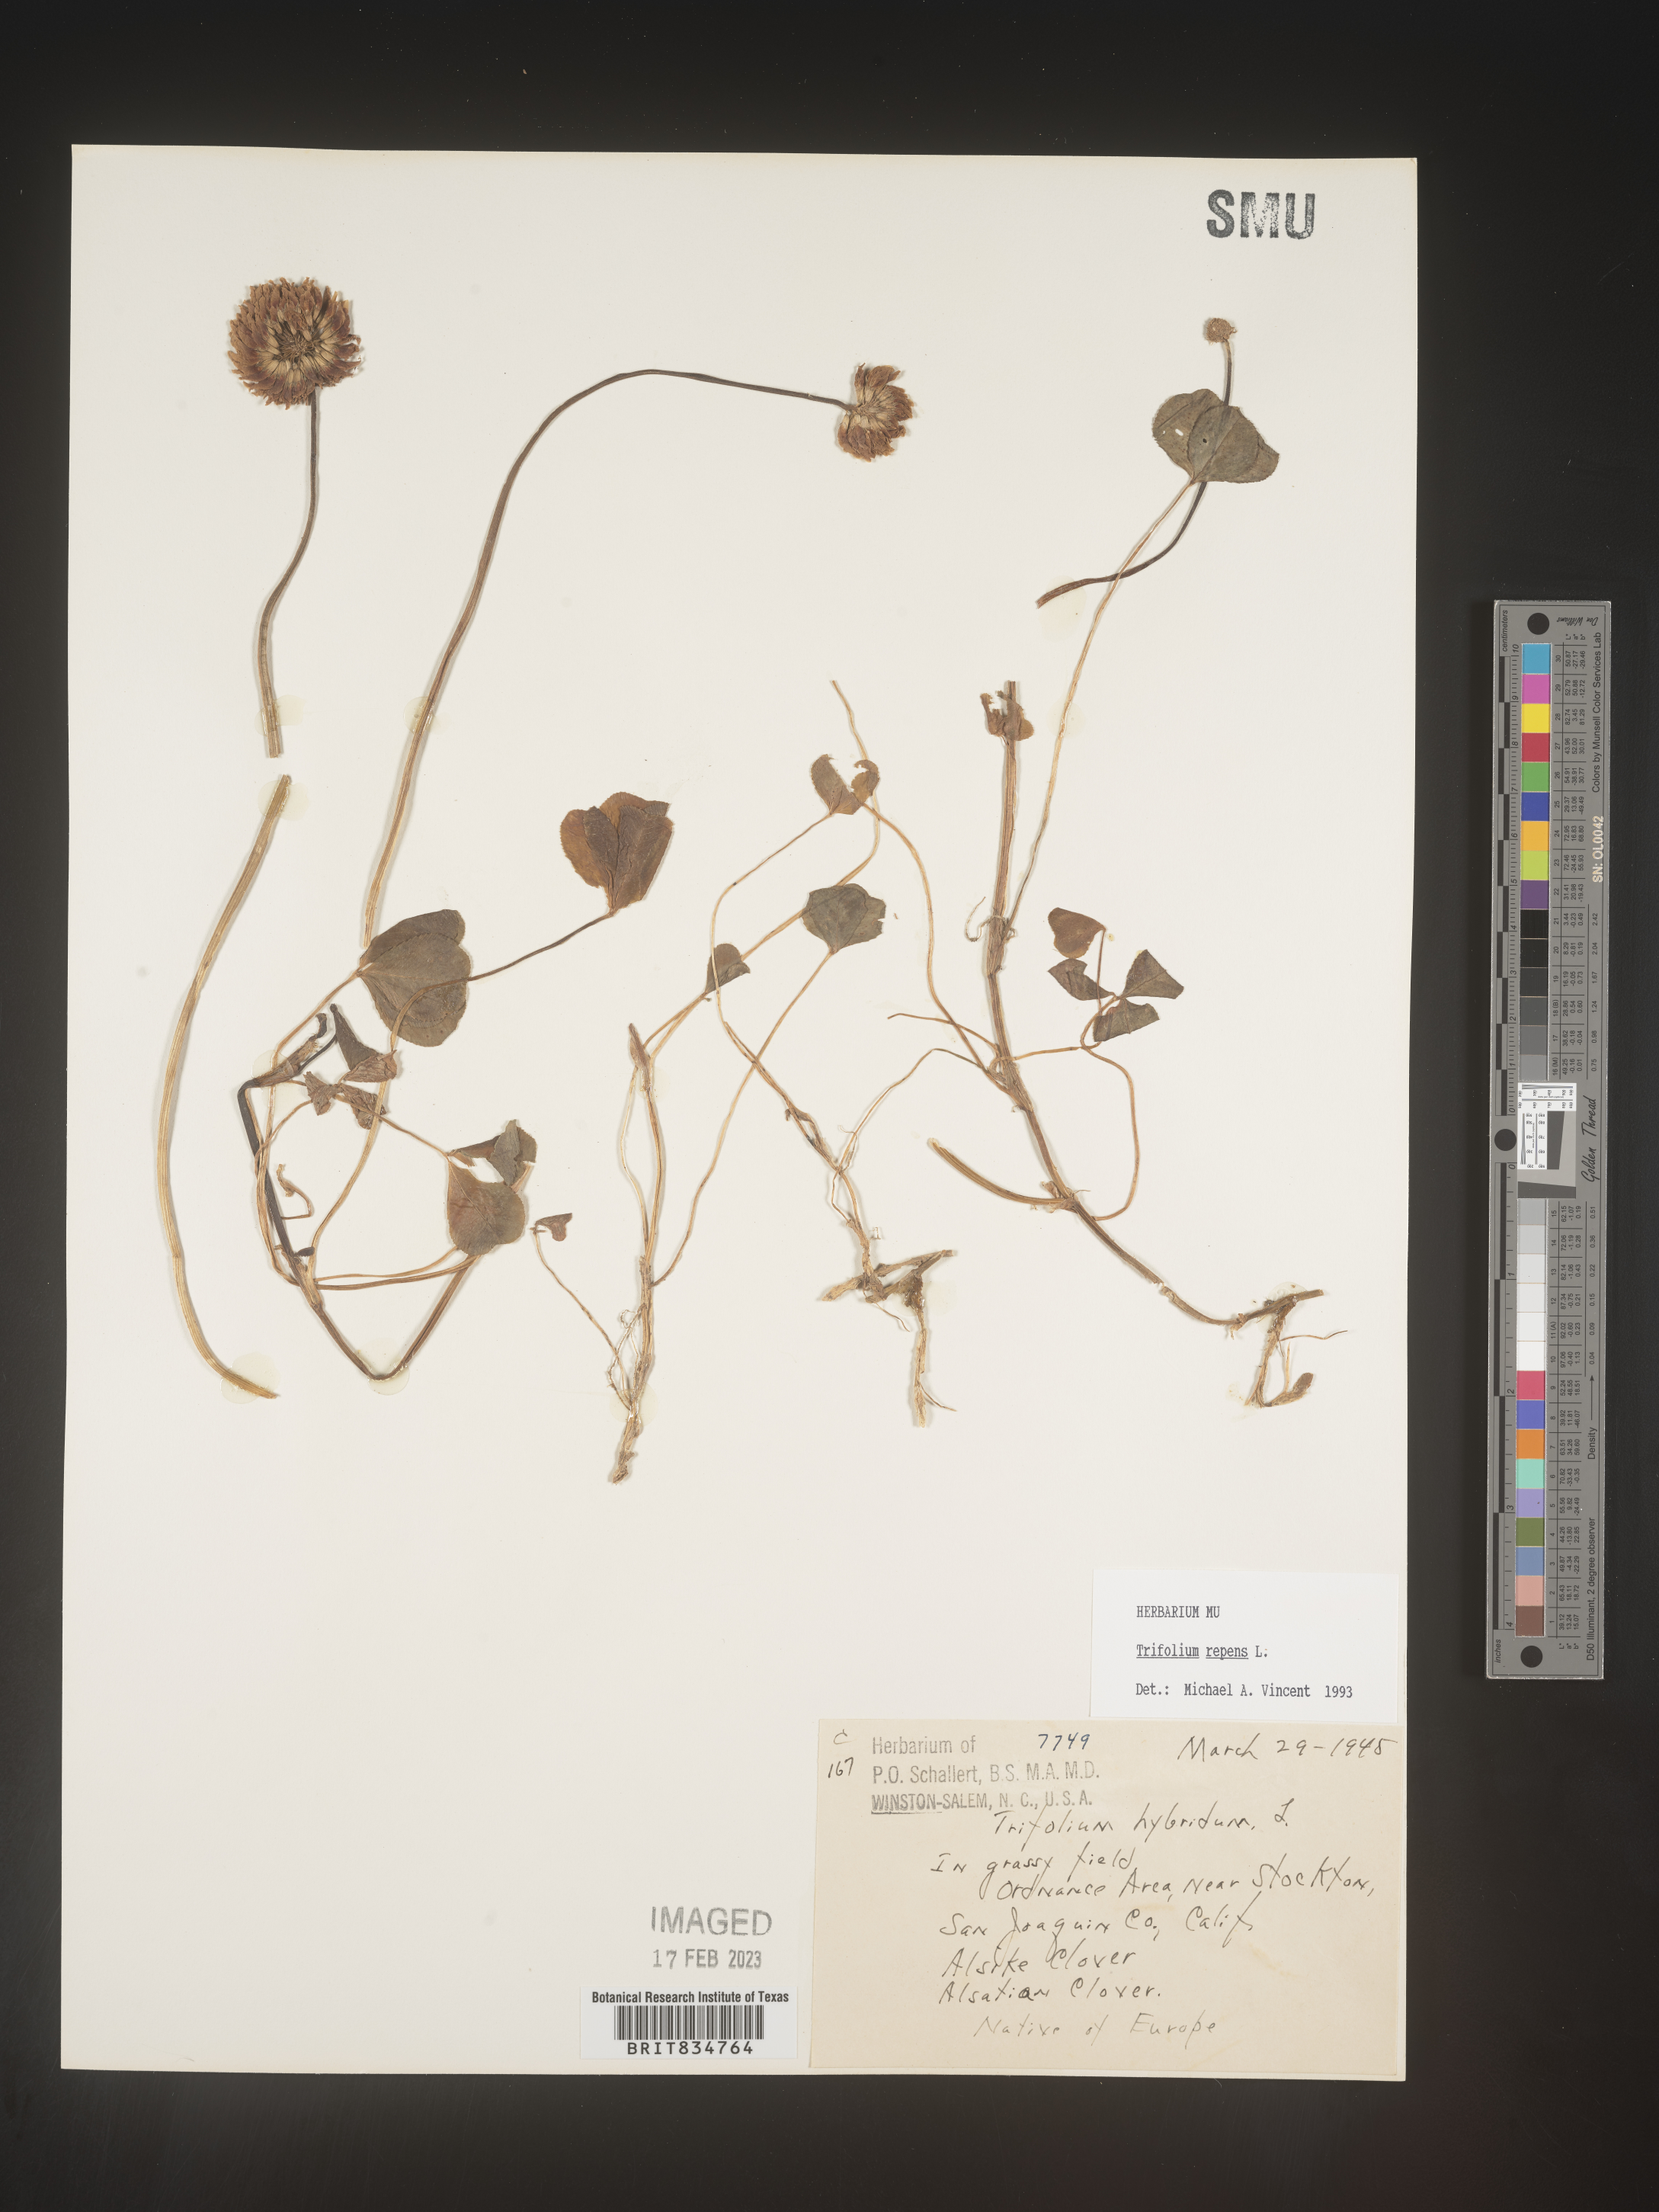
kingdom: Plantae
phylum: Tracheophyta
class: Magnoliopsida
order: Fabales
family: Fabaceae
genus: Trifolium
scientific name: Trifolium repens
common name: White clover
